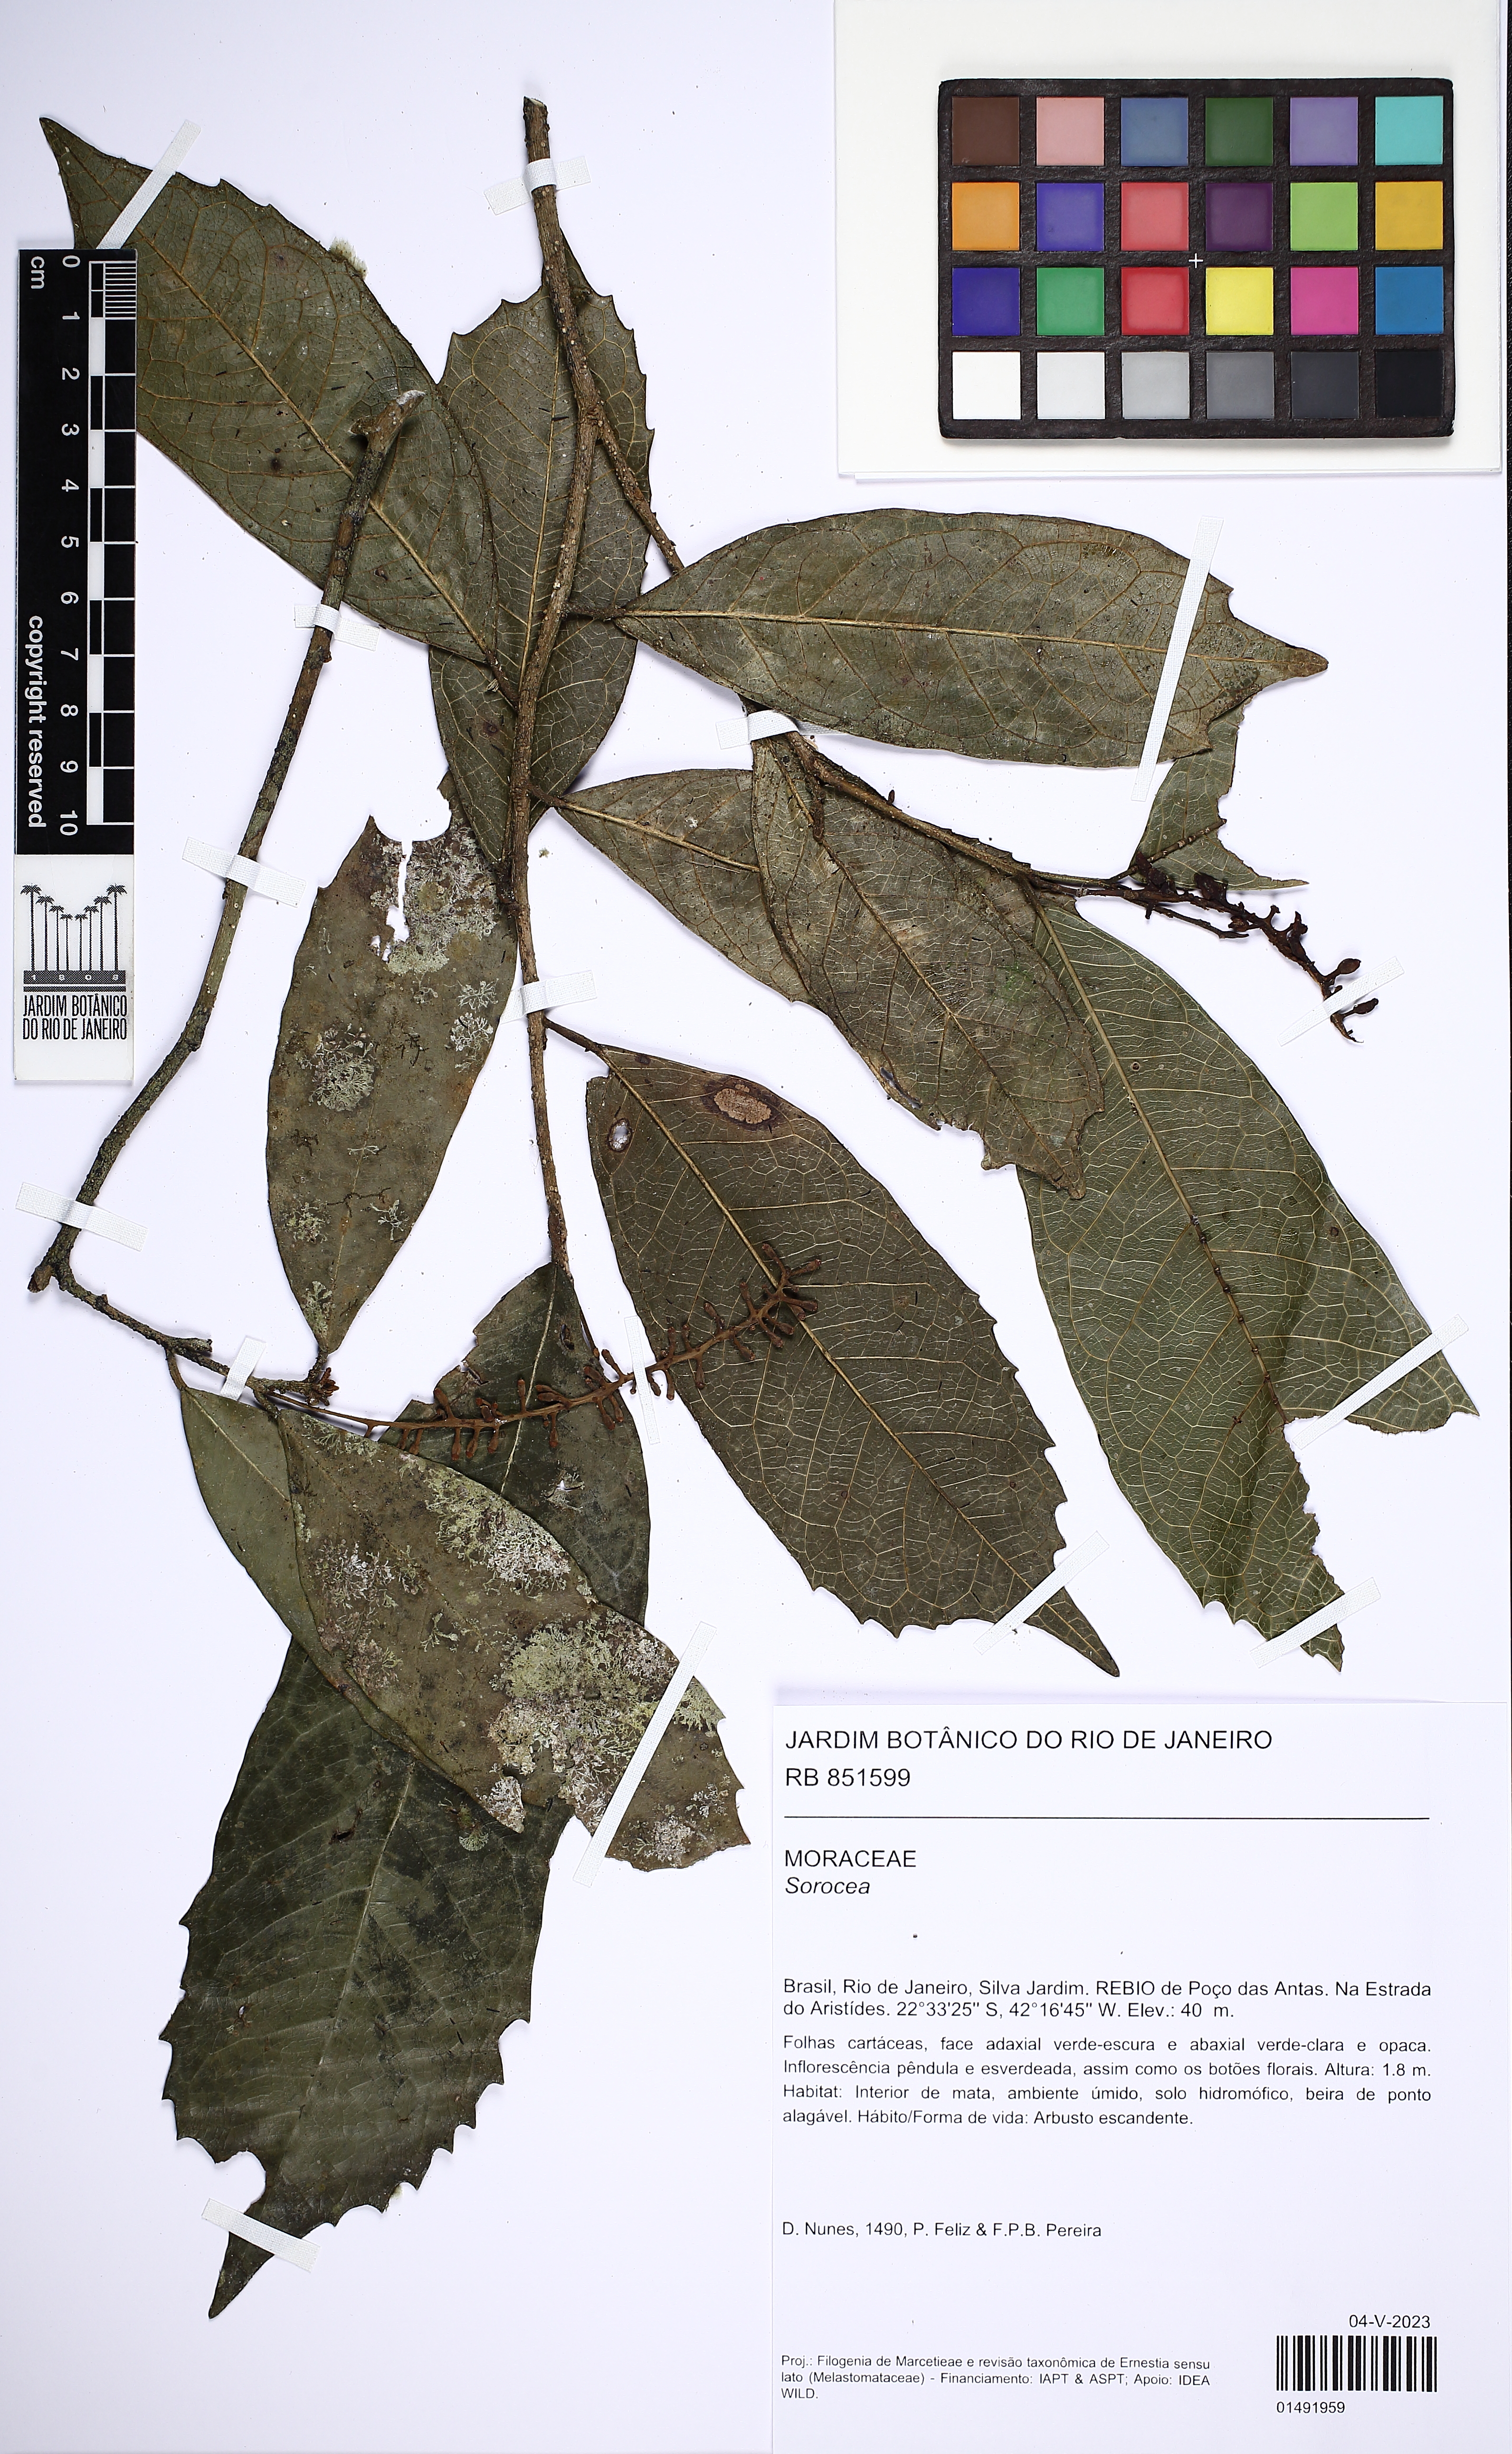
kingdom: Plantae
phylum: Tracheophyta
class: Magnoliopsida
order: Rosales
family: Moraceae
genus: Sorocea
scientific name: Sorocea
